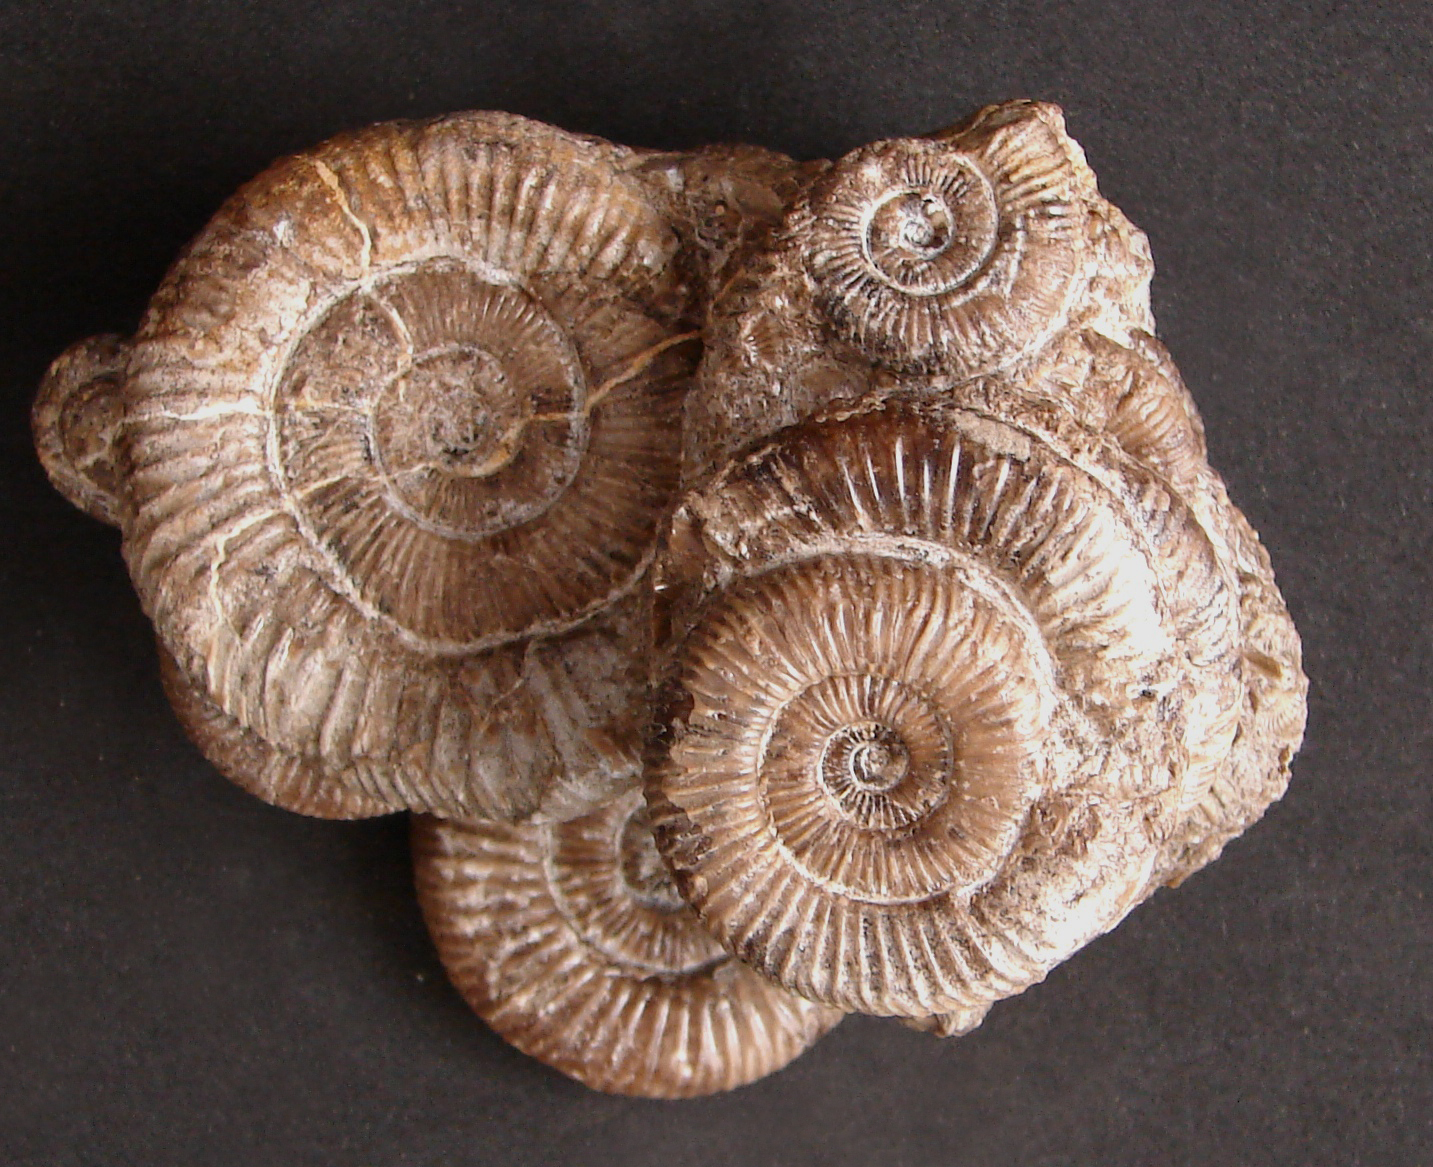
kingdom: Animalia
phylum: Mollusca
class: Cephalopoda
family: Dactylioceratidae
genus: Dactylioceras
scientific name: Dactylioceras athleticum
